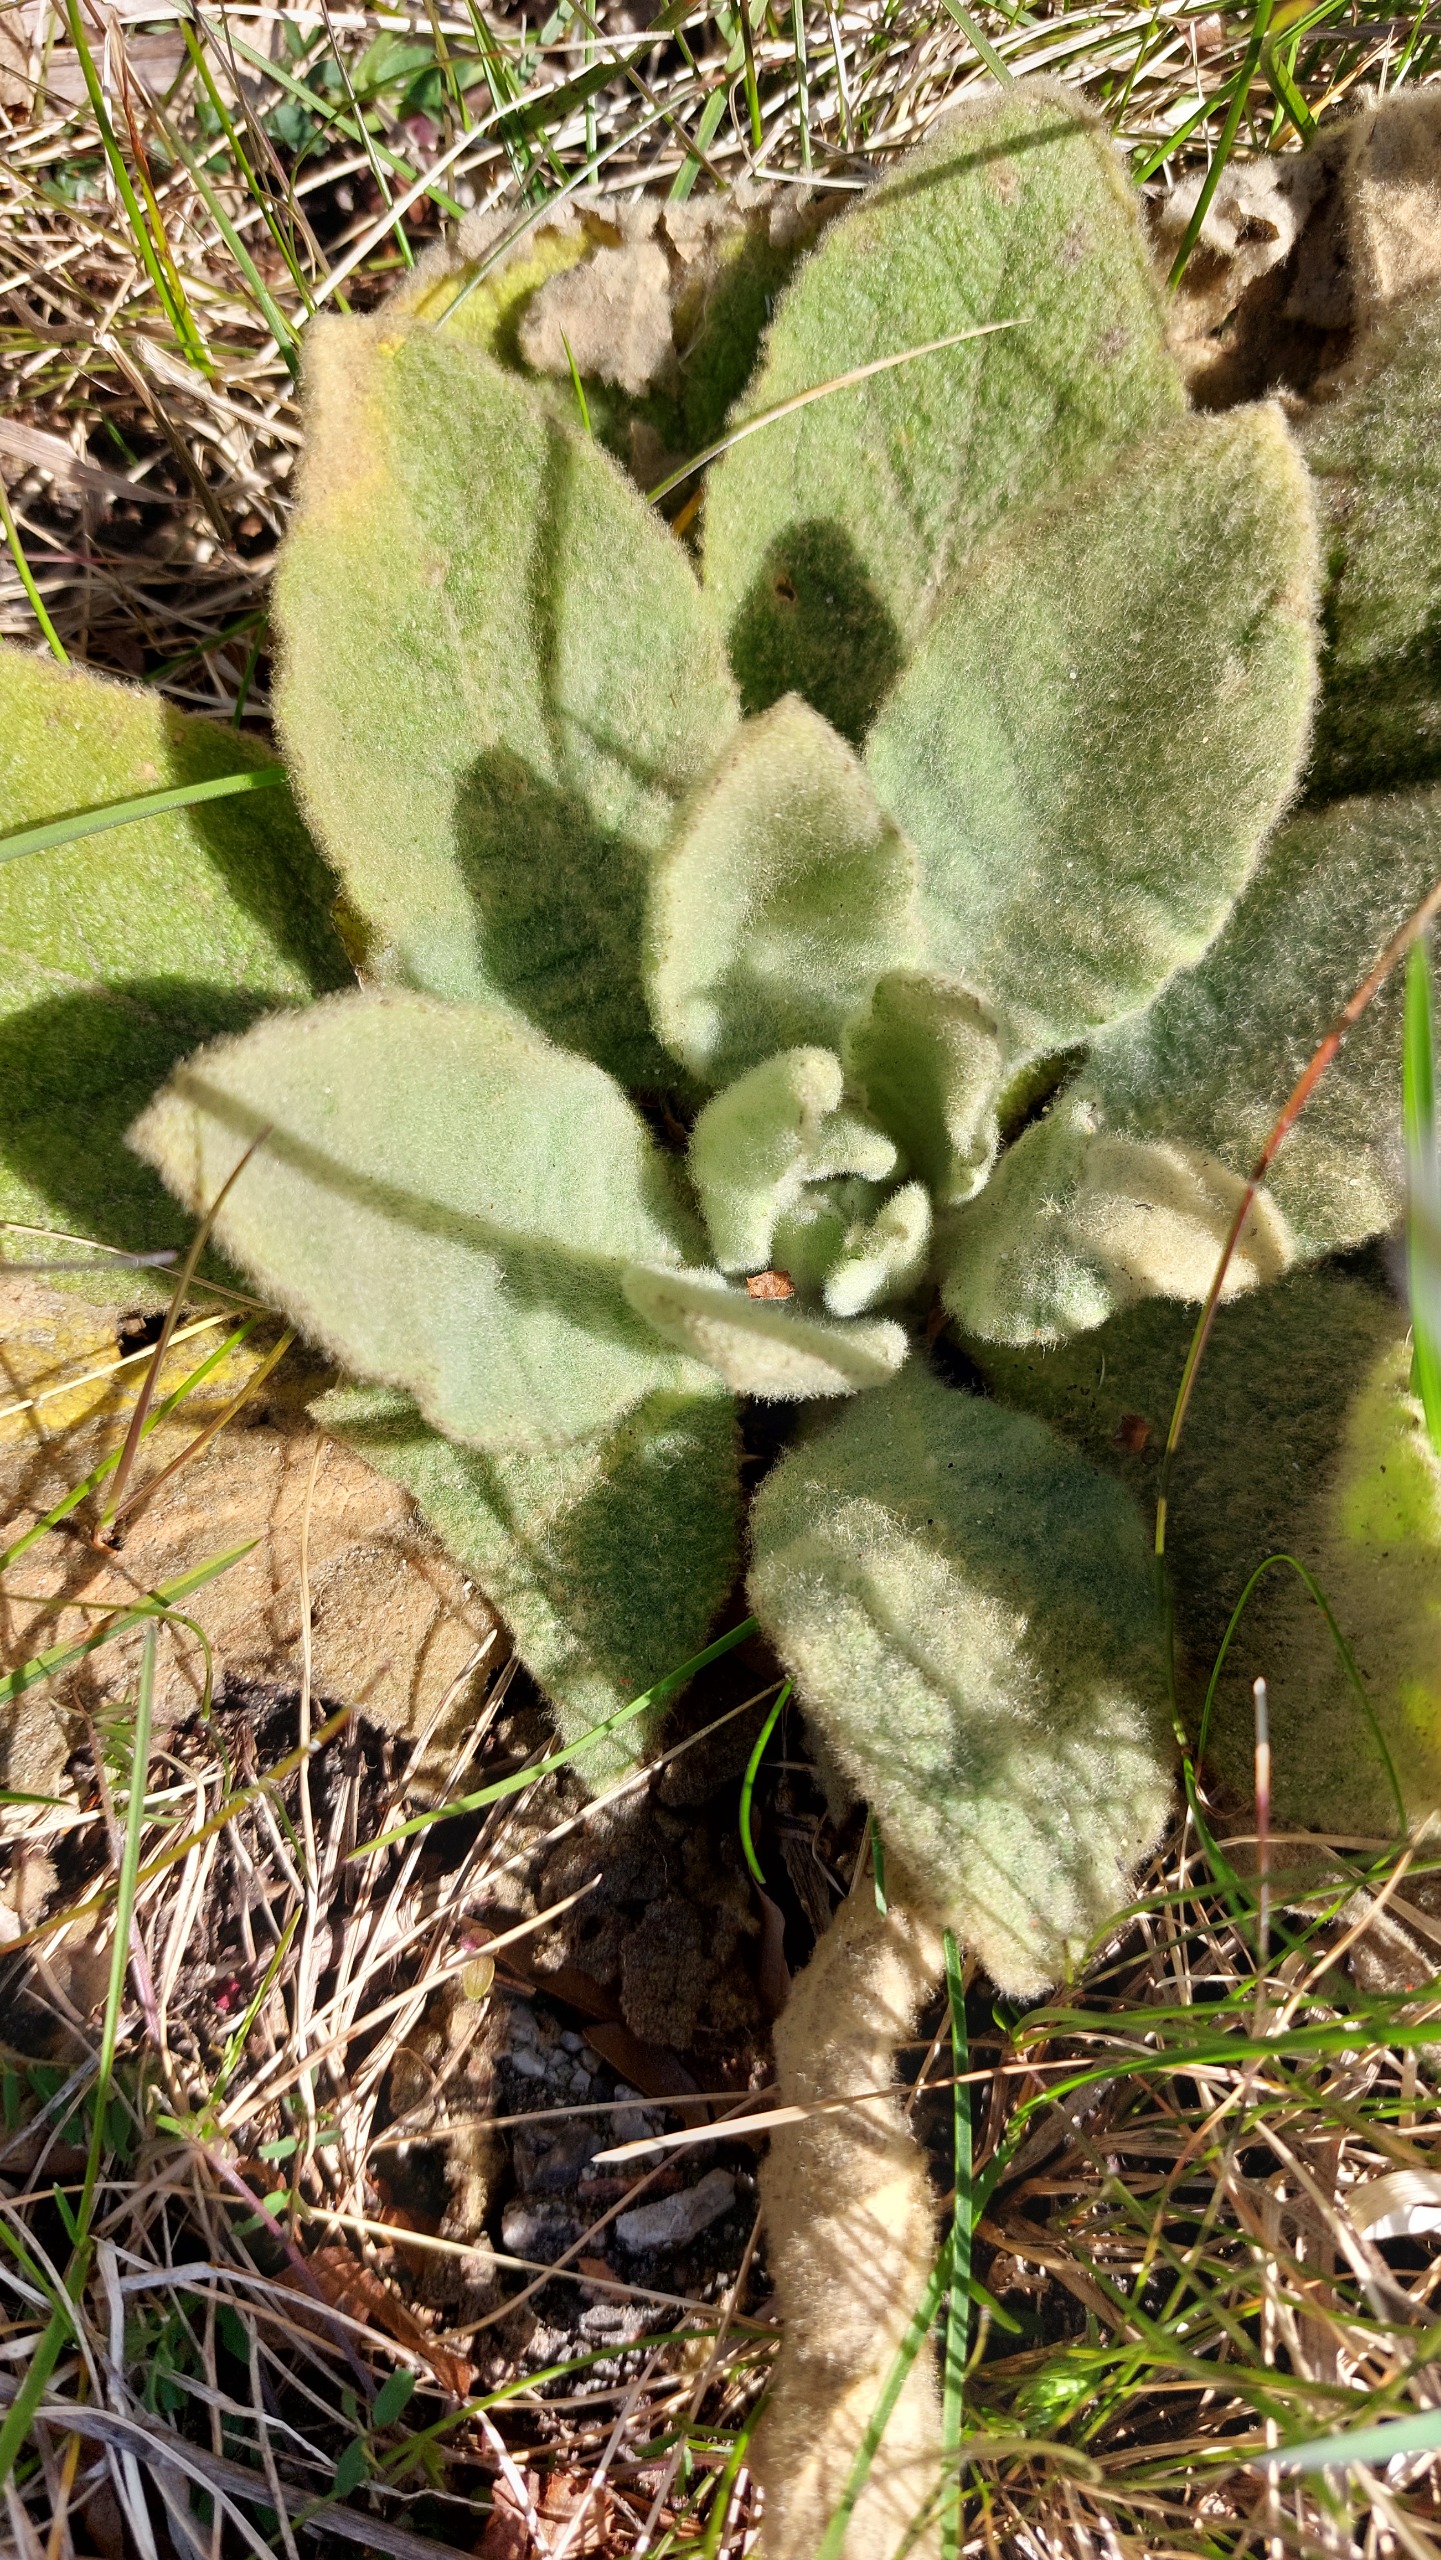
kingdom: Plantae
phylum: Tracheophyta
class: Magnoliopsida
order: Lamiales
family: Scrophulariaceae
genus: Verbascum
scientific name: Verbascum thapsus
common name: Filtbladet kongelys
